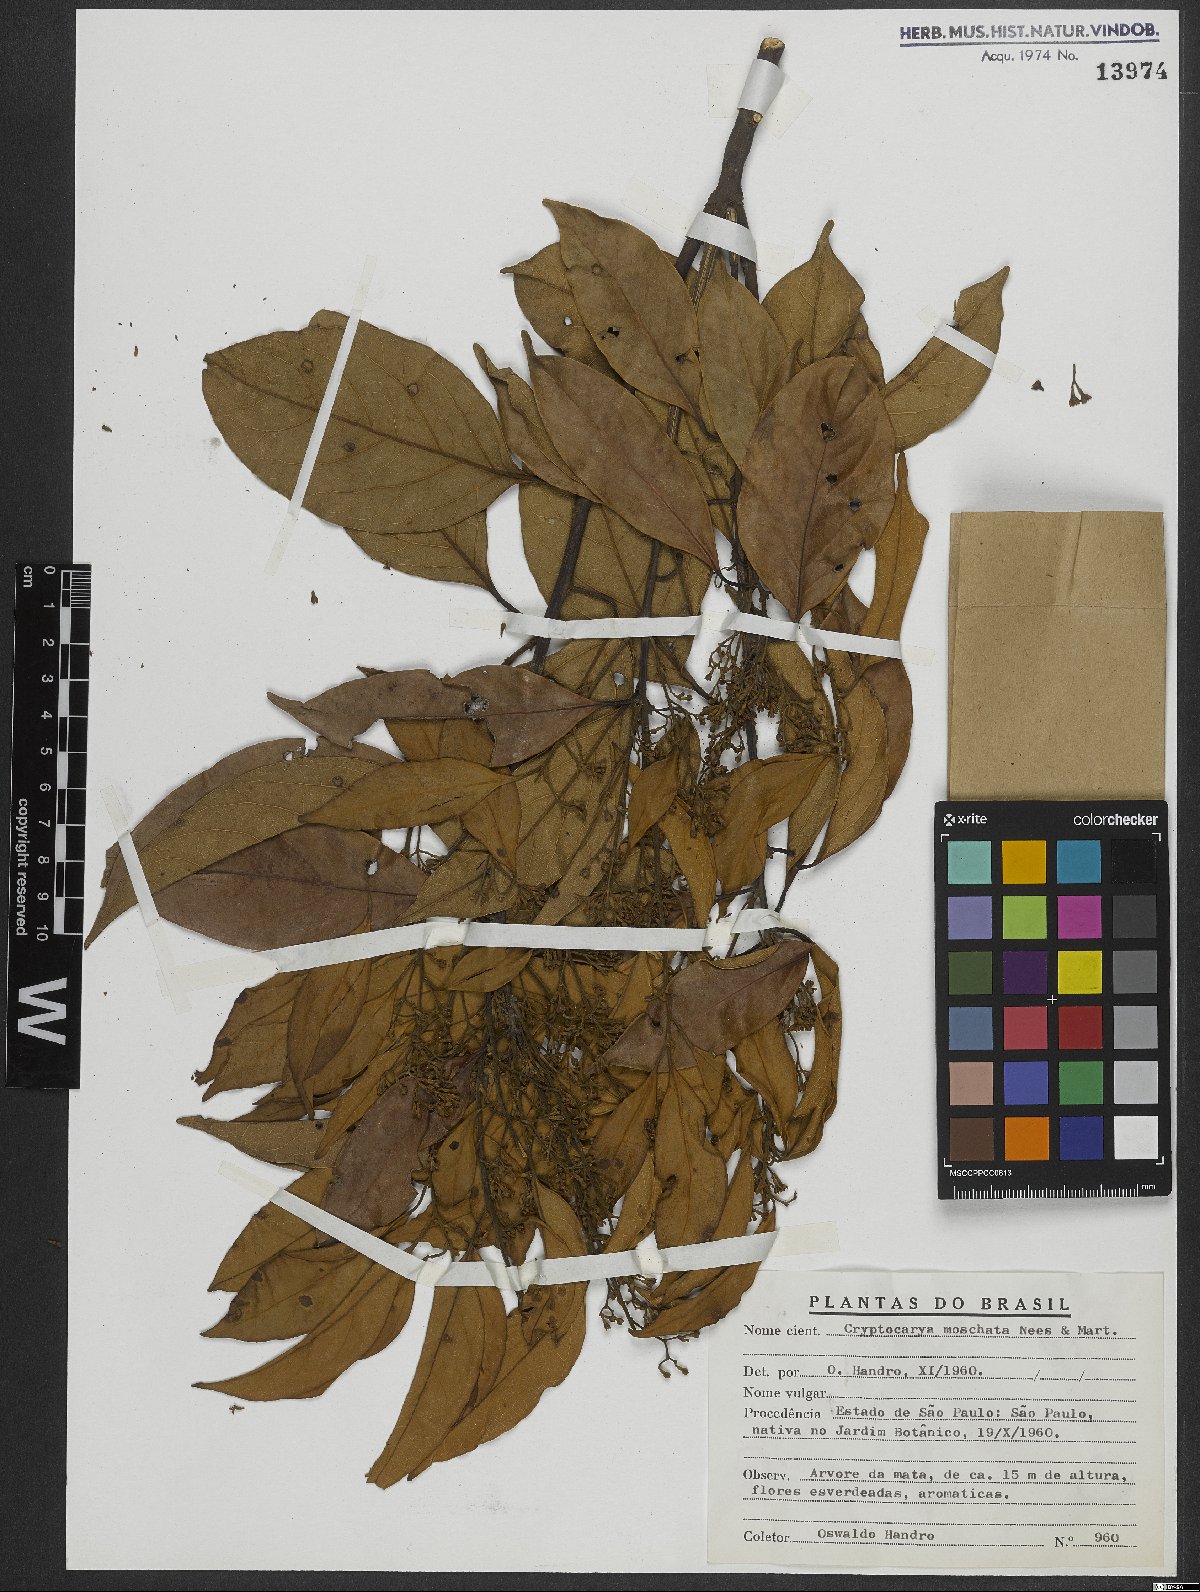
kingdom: Plantae
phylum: Tracheophyta
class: Magnoliopsida
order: Laurales
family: Lauraceae
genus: Cryptocarya
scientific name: Cryptocarya moschata
